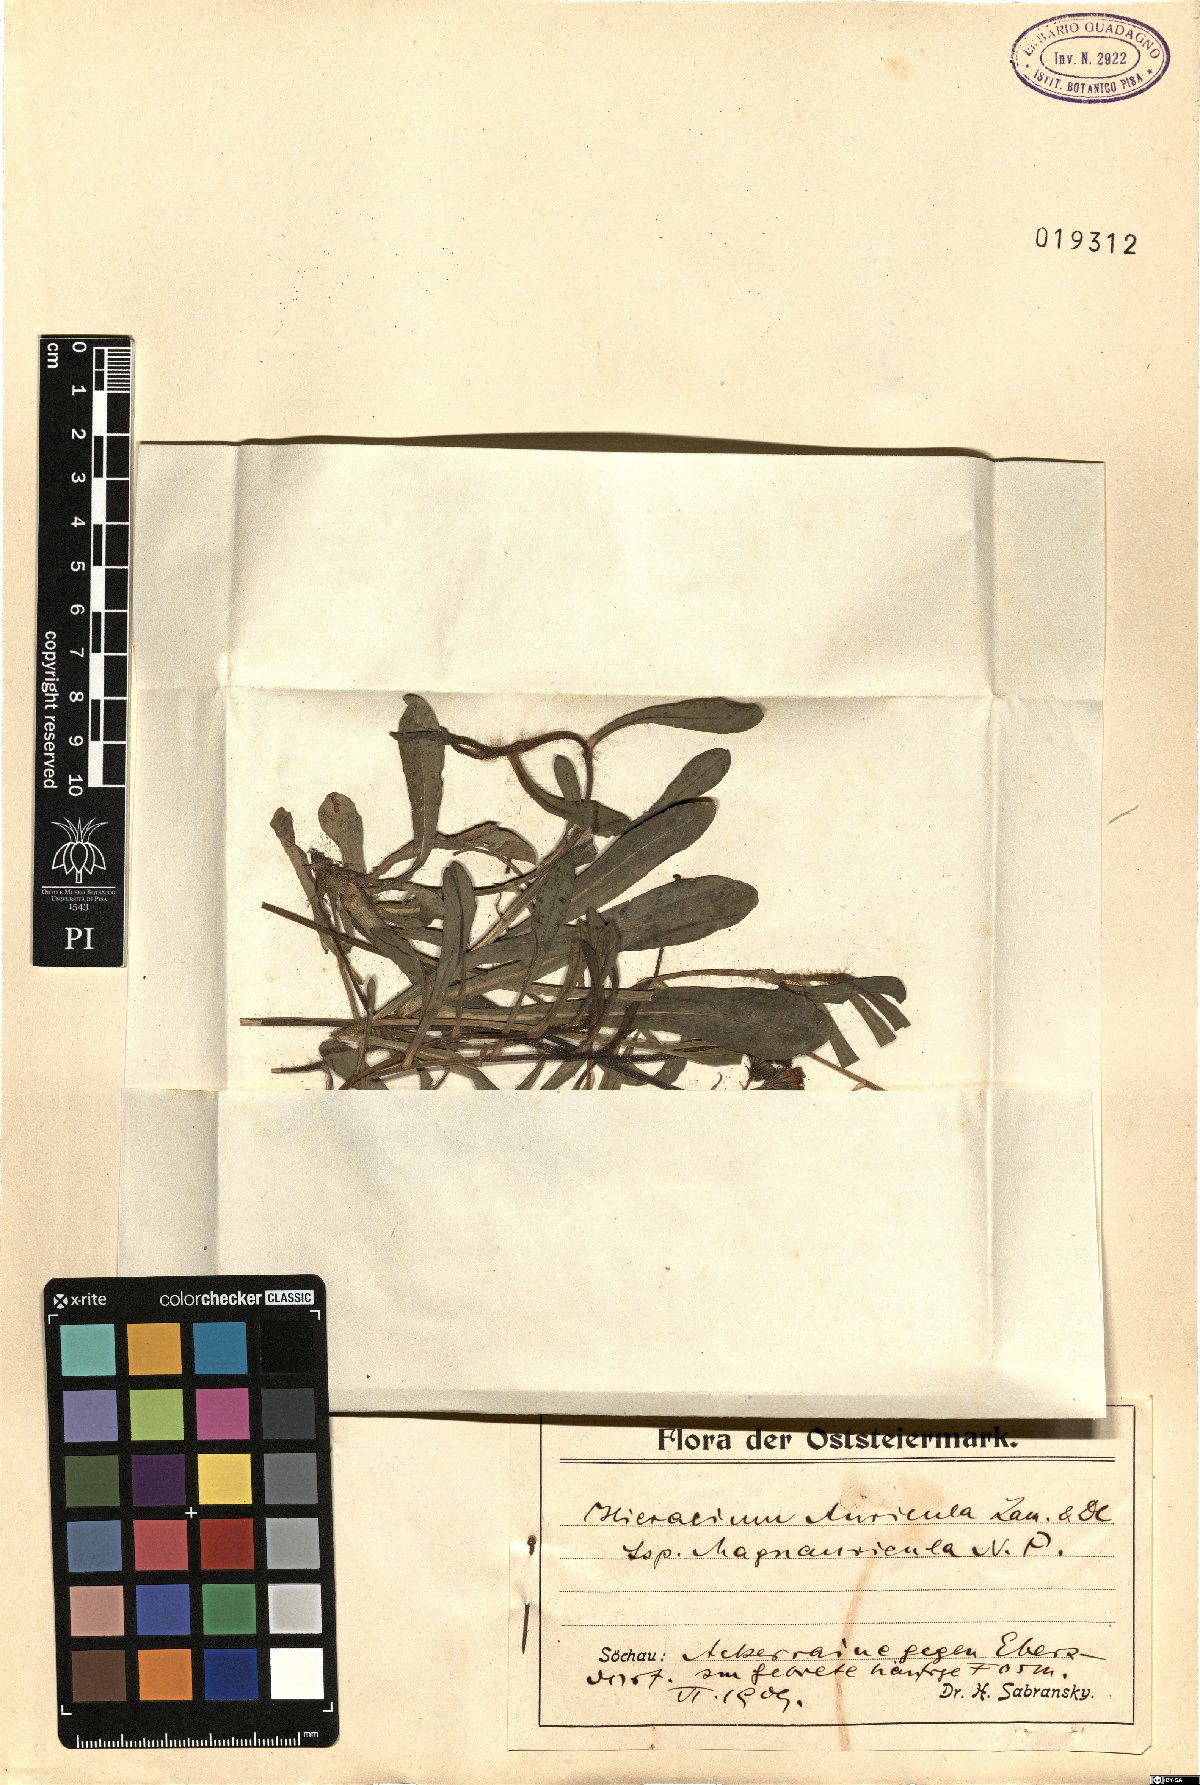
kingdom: Plantae
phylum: Tracheophyta
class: Magnoliopsida
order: Asterales
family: Asteraceae
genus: Pilosella
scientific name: Pilosella lactucella
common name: Glaucous fox-and-cubs
